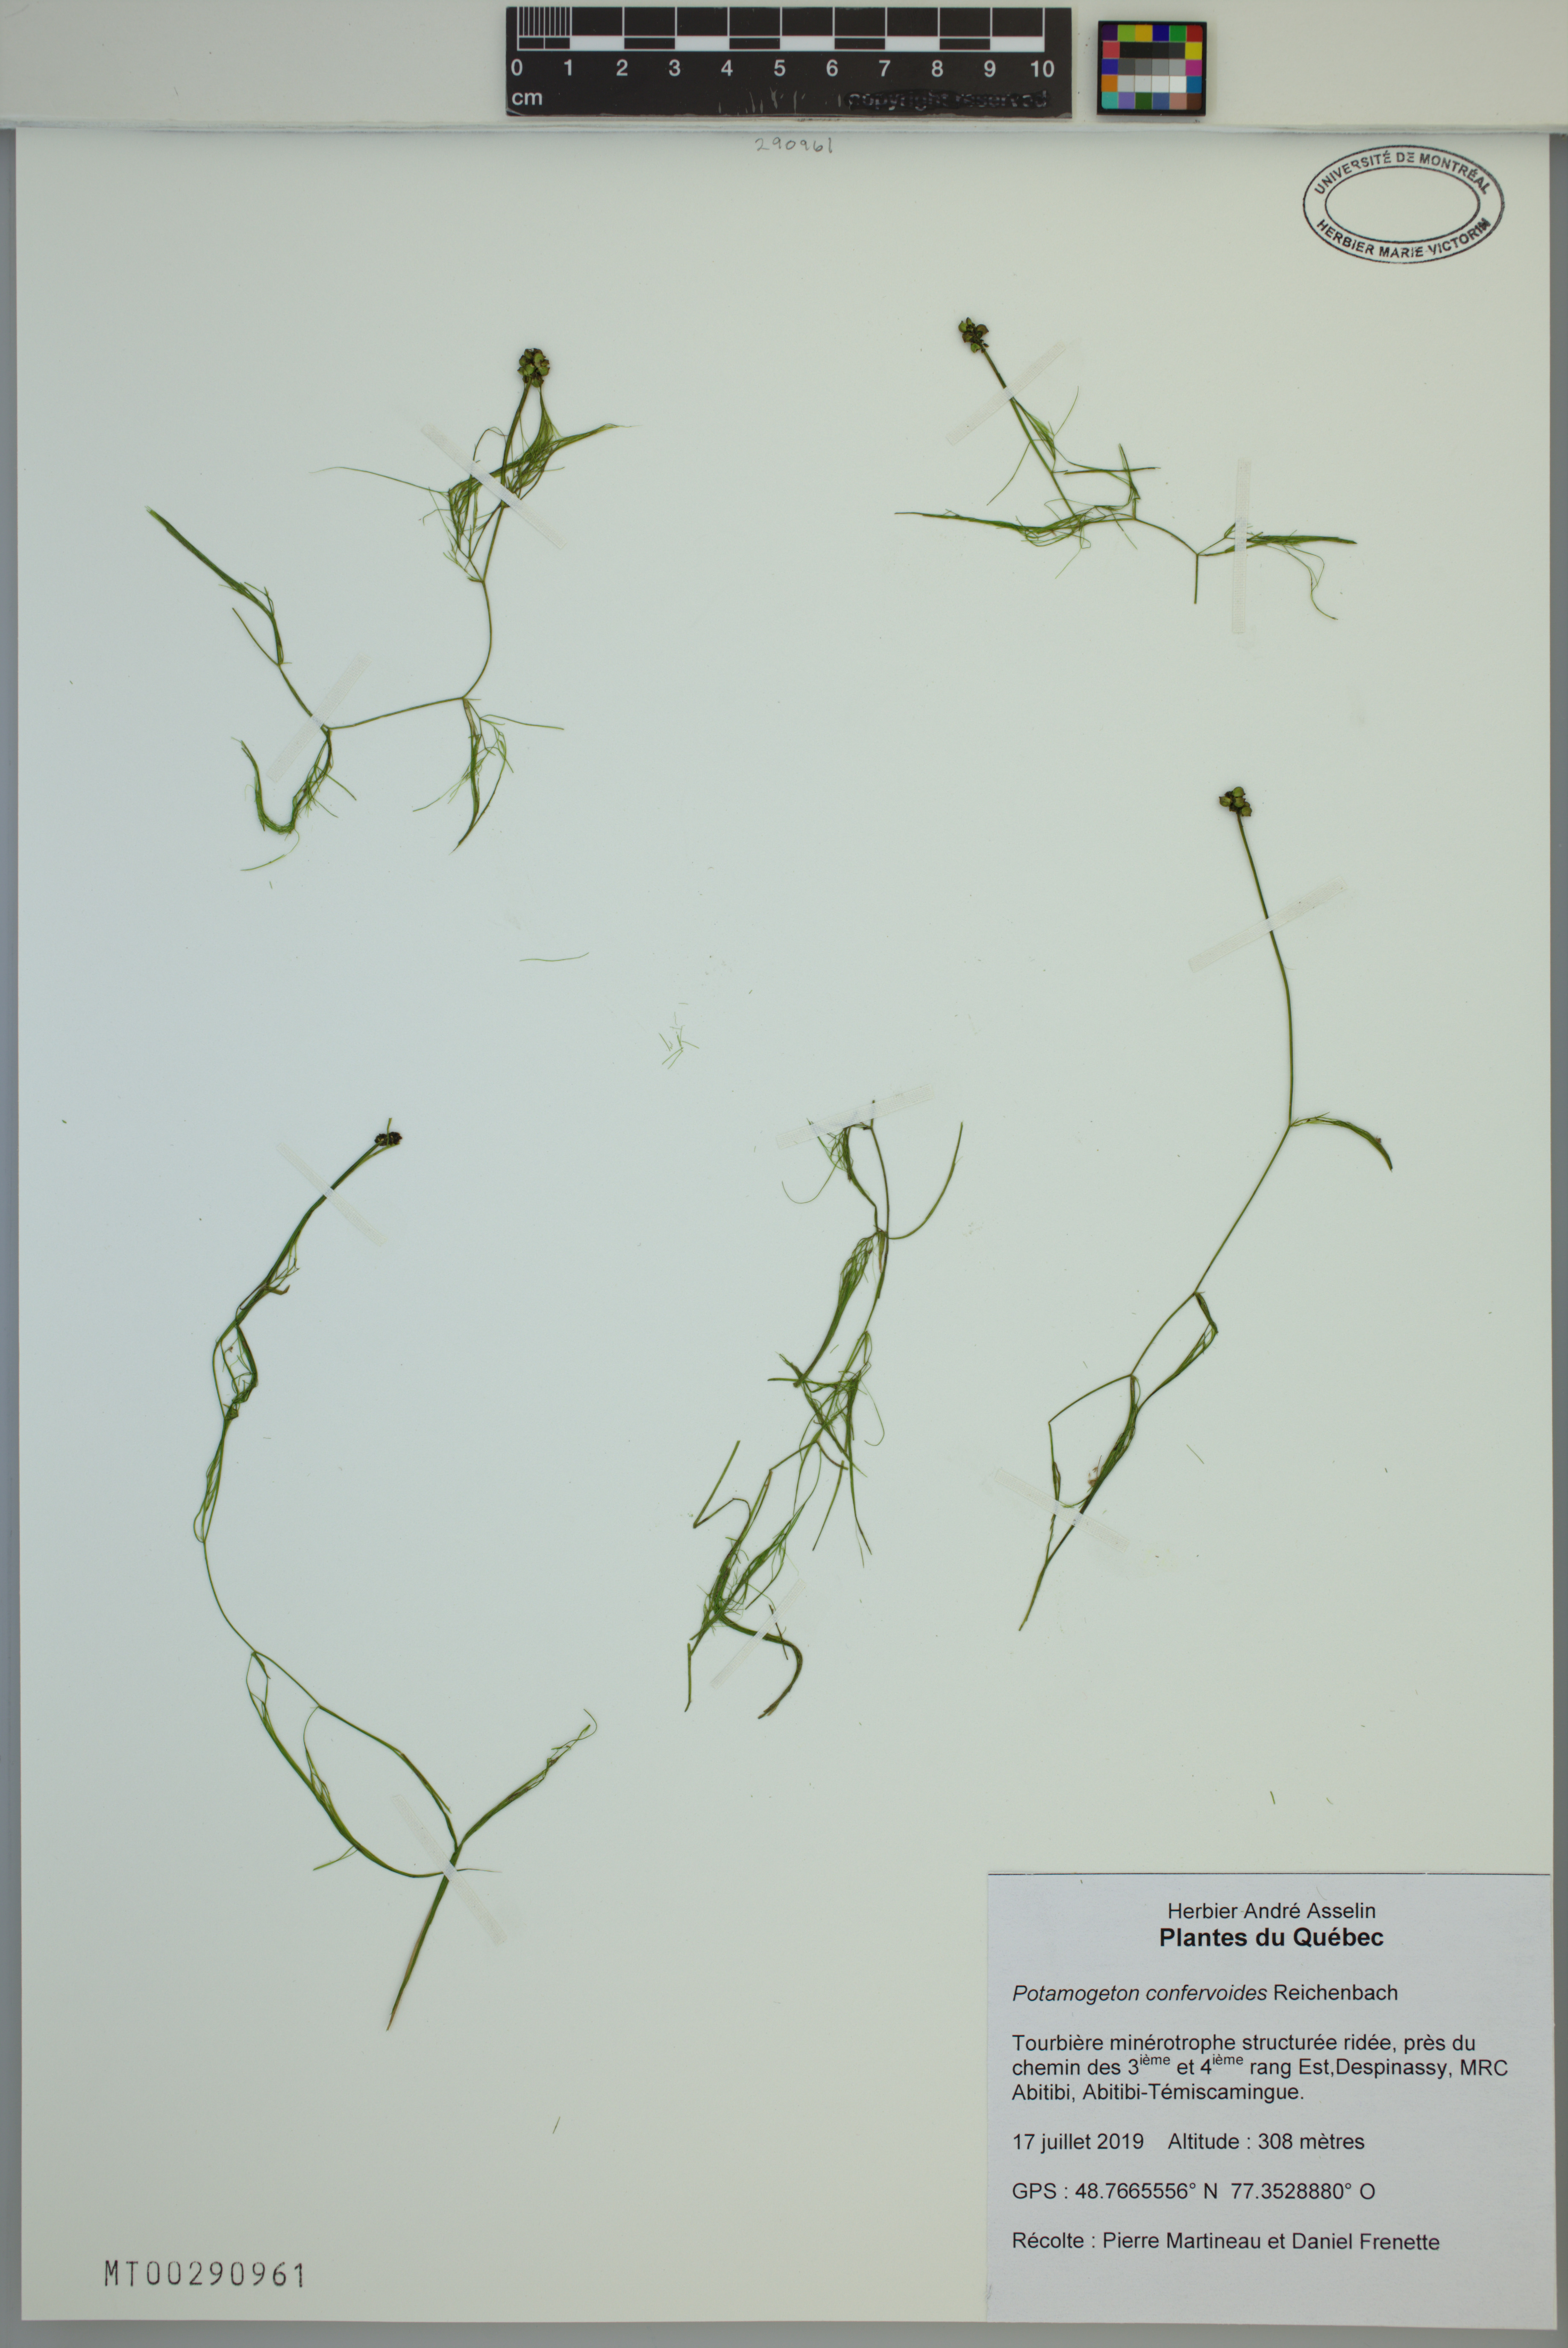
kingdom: Plantae
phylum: Tracheophyta
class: Liliopsida
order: Alismatales
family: Potamogetonaceae
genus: Potamogeton
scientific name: Potamogeton confervoides
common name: Alga pondweed
